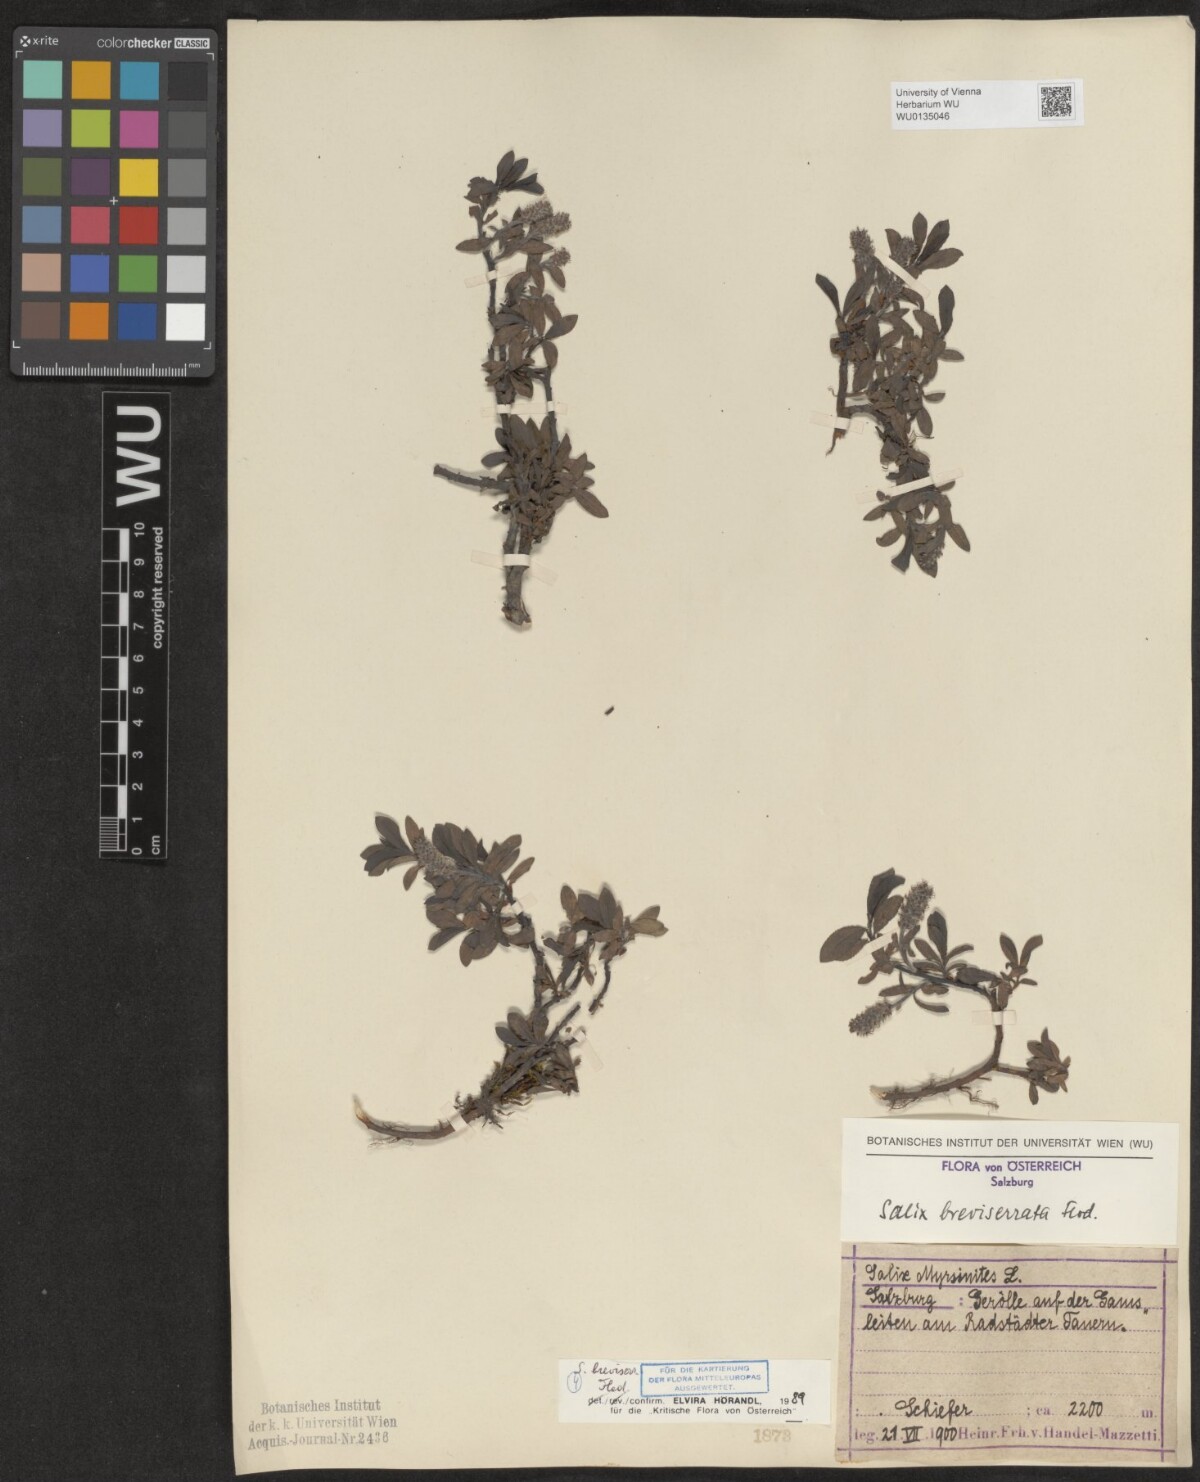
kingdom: Plantae
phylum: Tracheophyta
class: Magnoliopsida
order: Malpighiales
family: Salicaceae
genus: Salix
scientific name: Salix breviserrata
